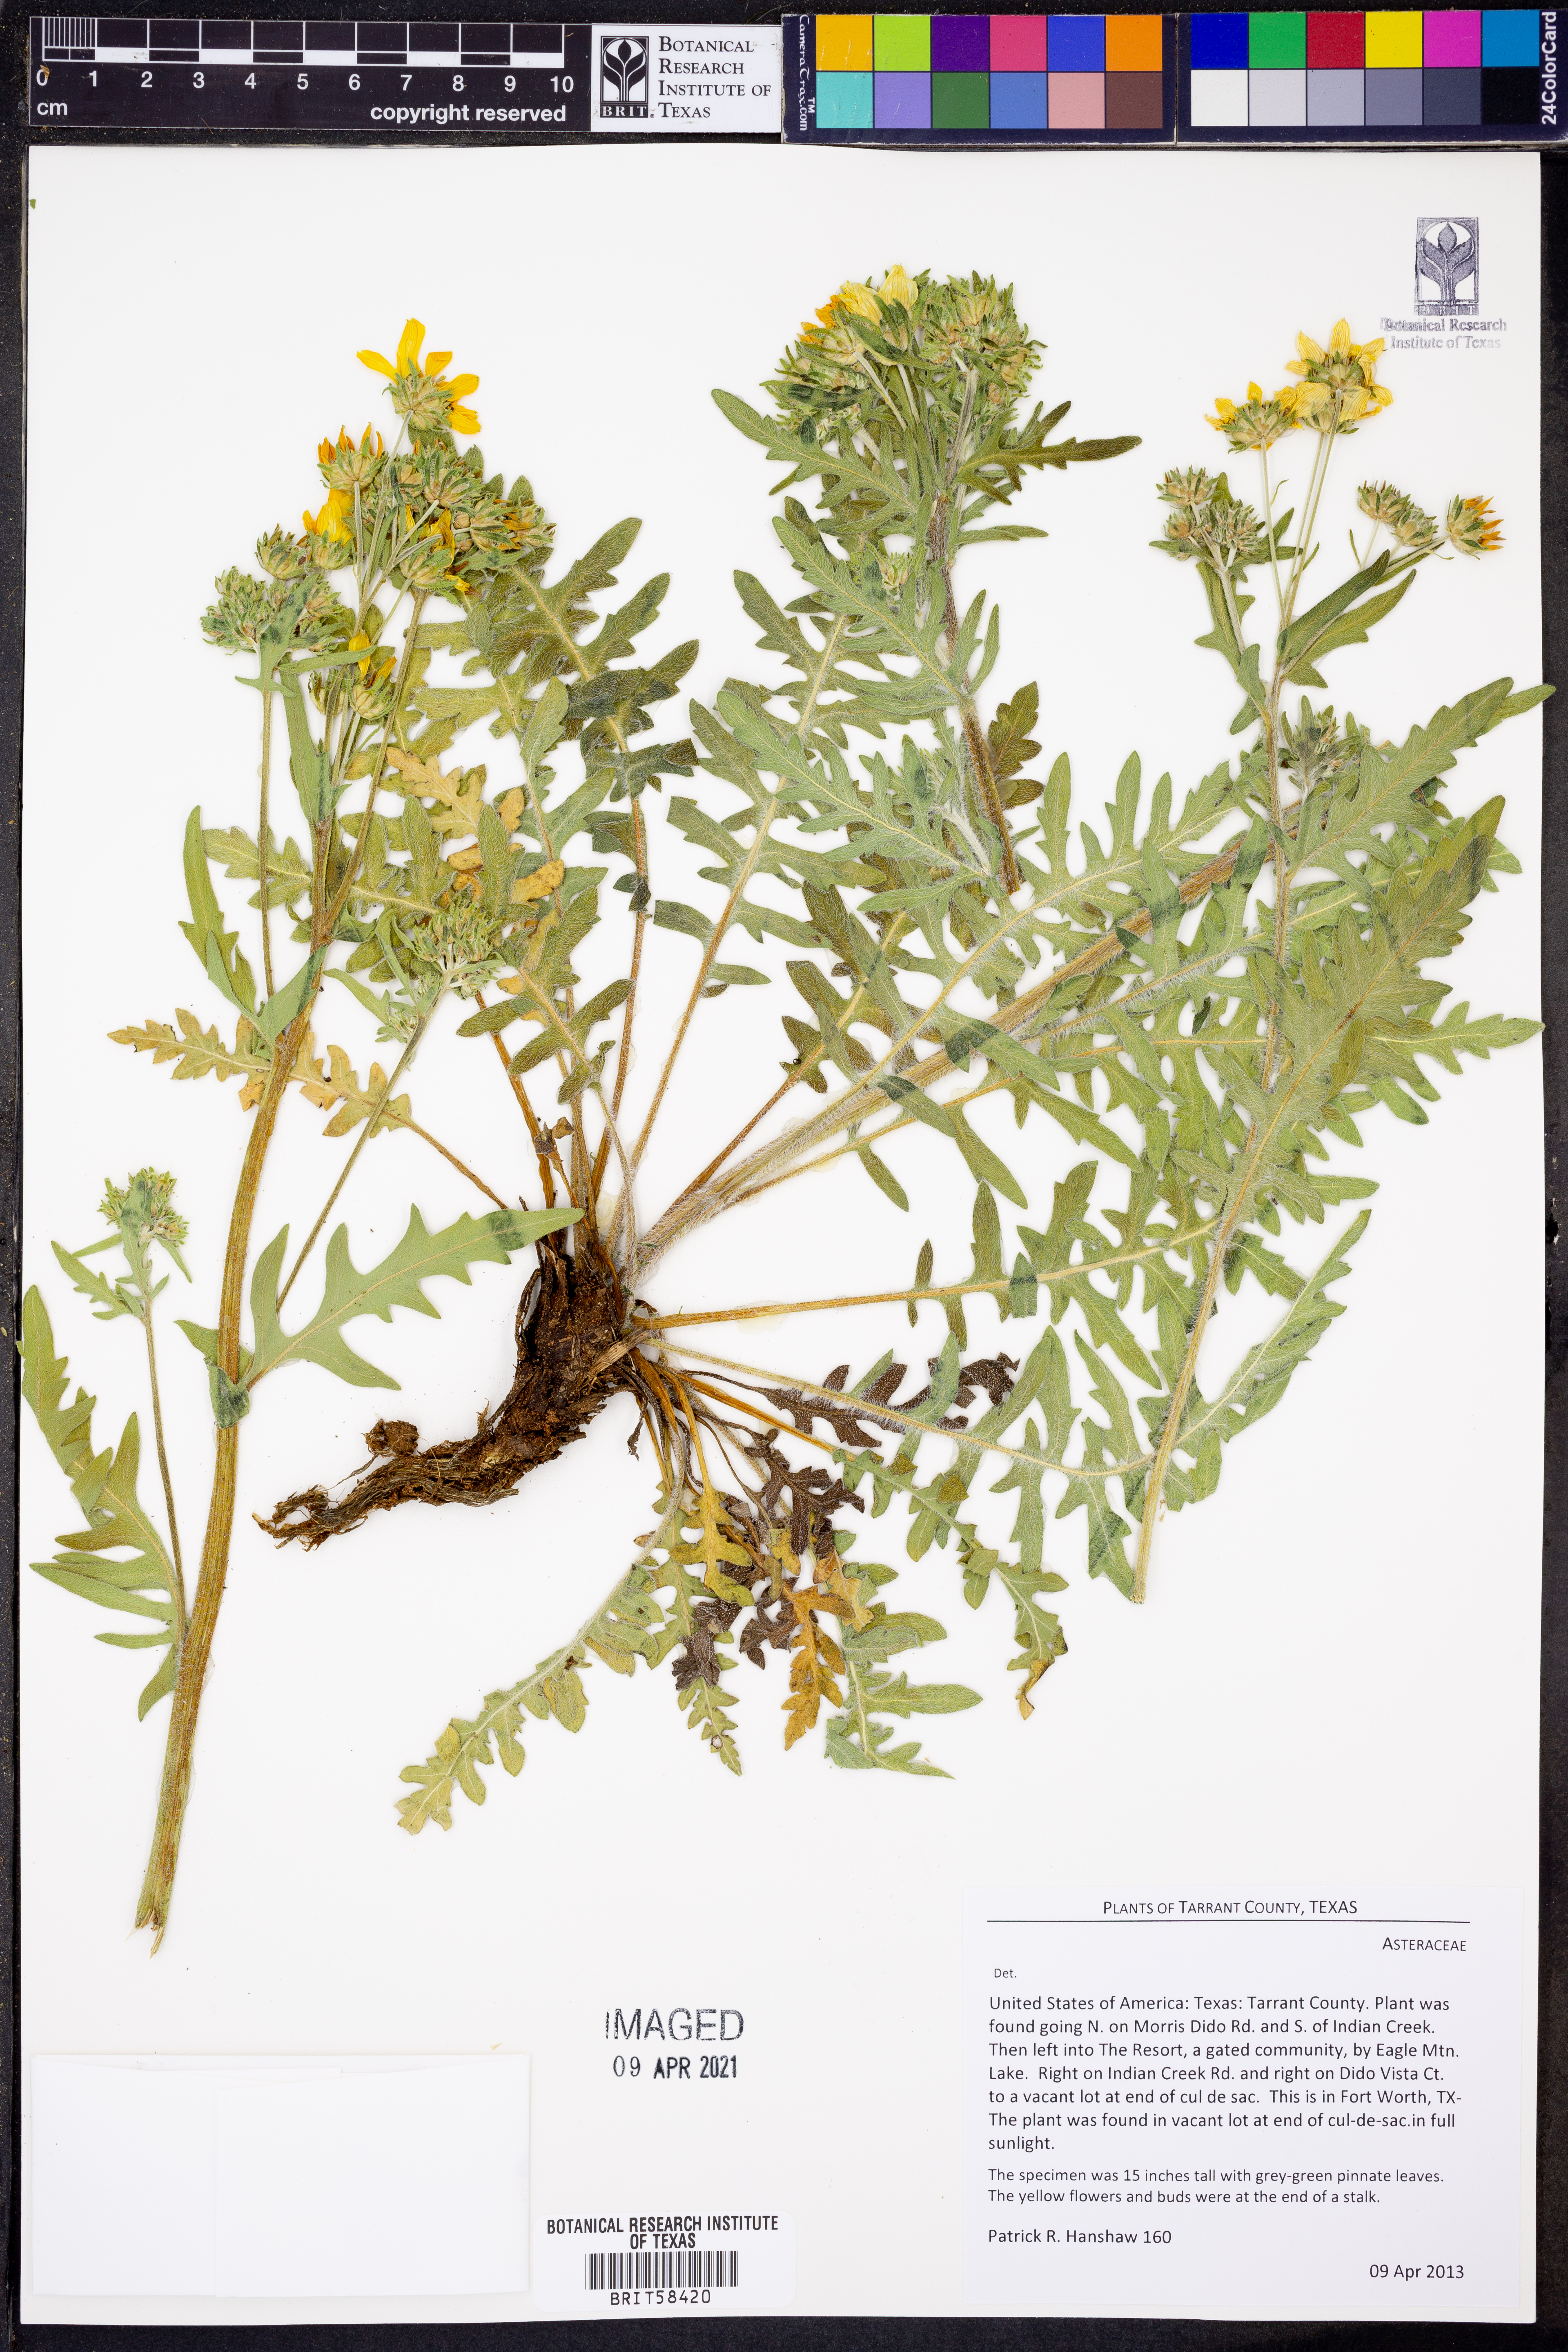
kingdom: Plantae
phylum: Tracheophyta
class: Magnoliopsida
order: Asterales
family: Asteraceae
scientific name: Asteraceae
